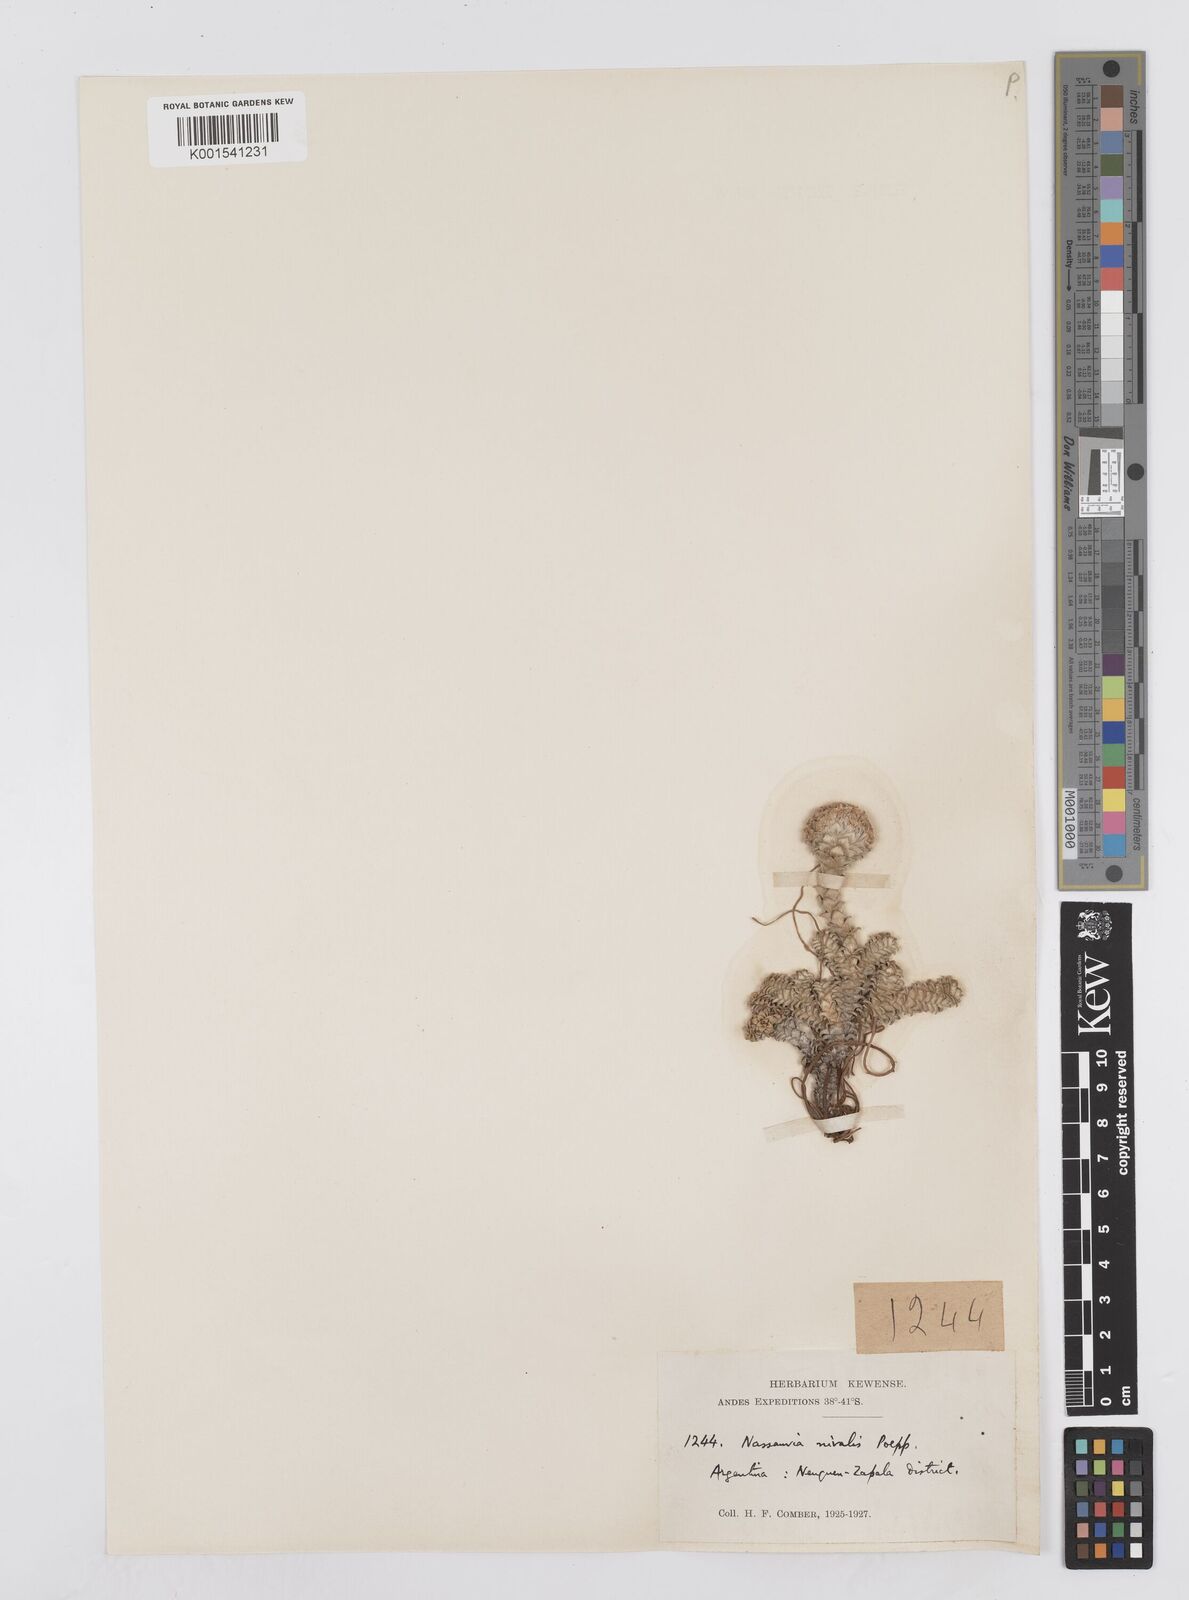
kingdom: Plantae
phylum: Tracheophyta
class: Magnoliopsida
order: Asterales
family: Asteraceae
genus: Nassauvia
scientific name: Nassauvia argentea
